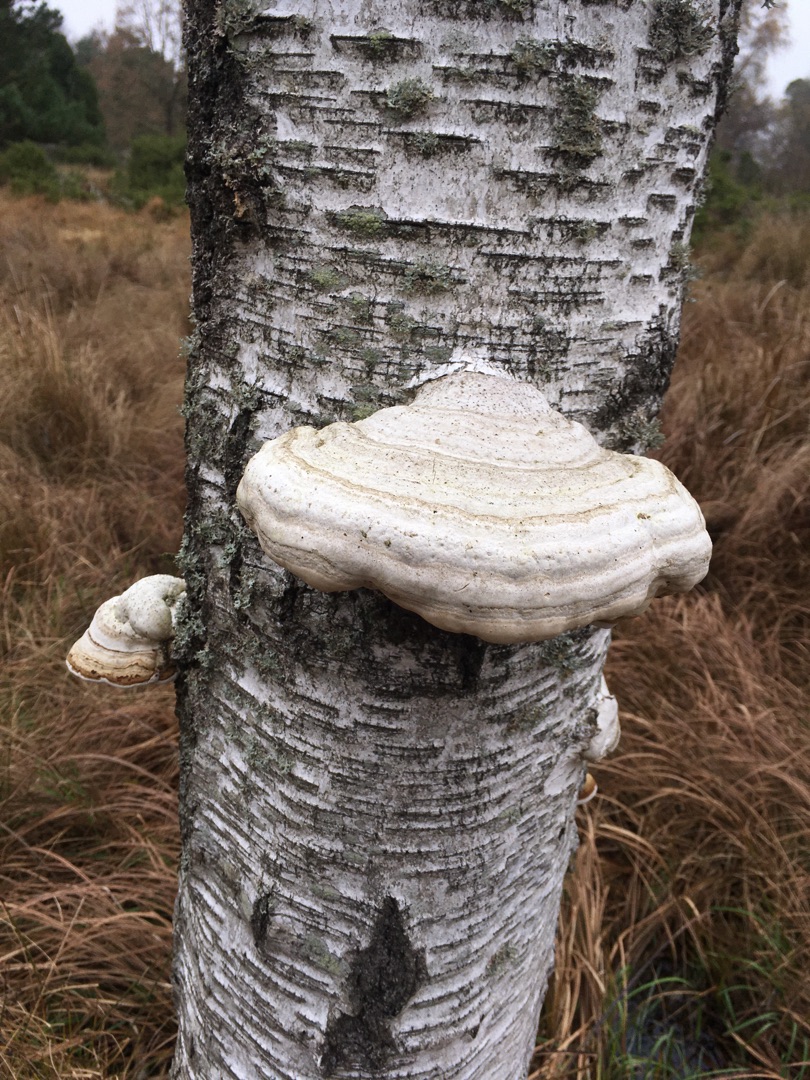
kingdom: Fungi
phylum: Basidiomycota
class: Agaricomycetes
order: Polyporales
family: Polyporaceae
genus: Fomes
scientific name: Fomes fomentarius
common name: Tøndersvamp
